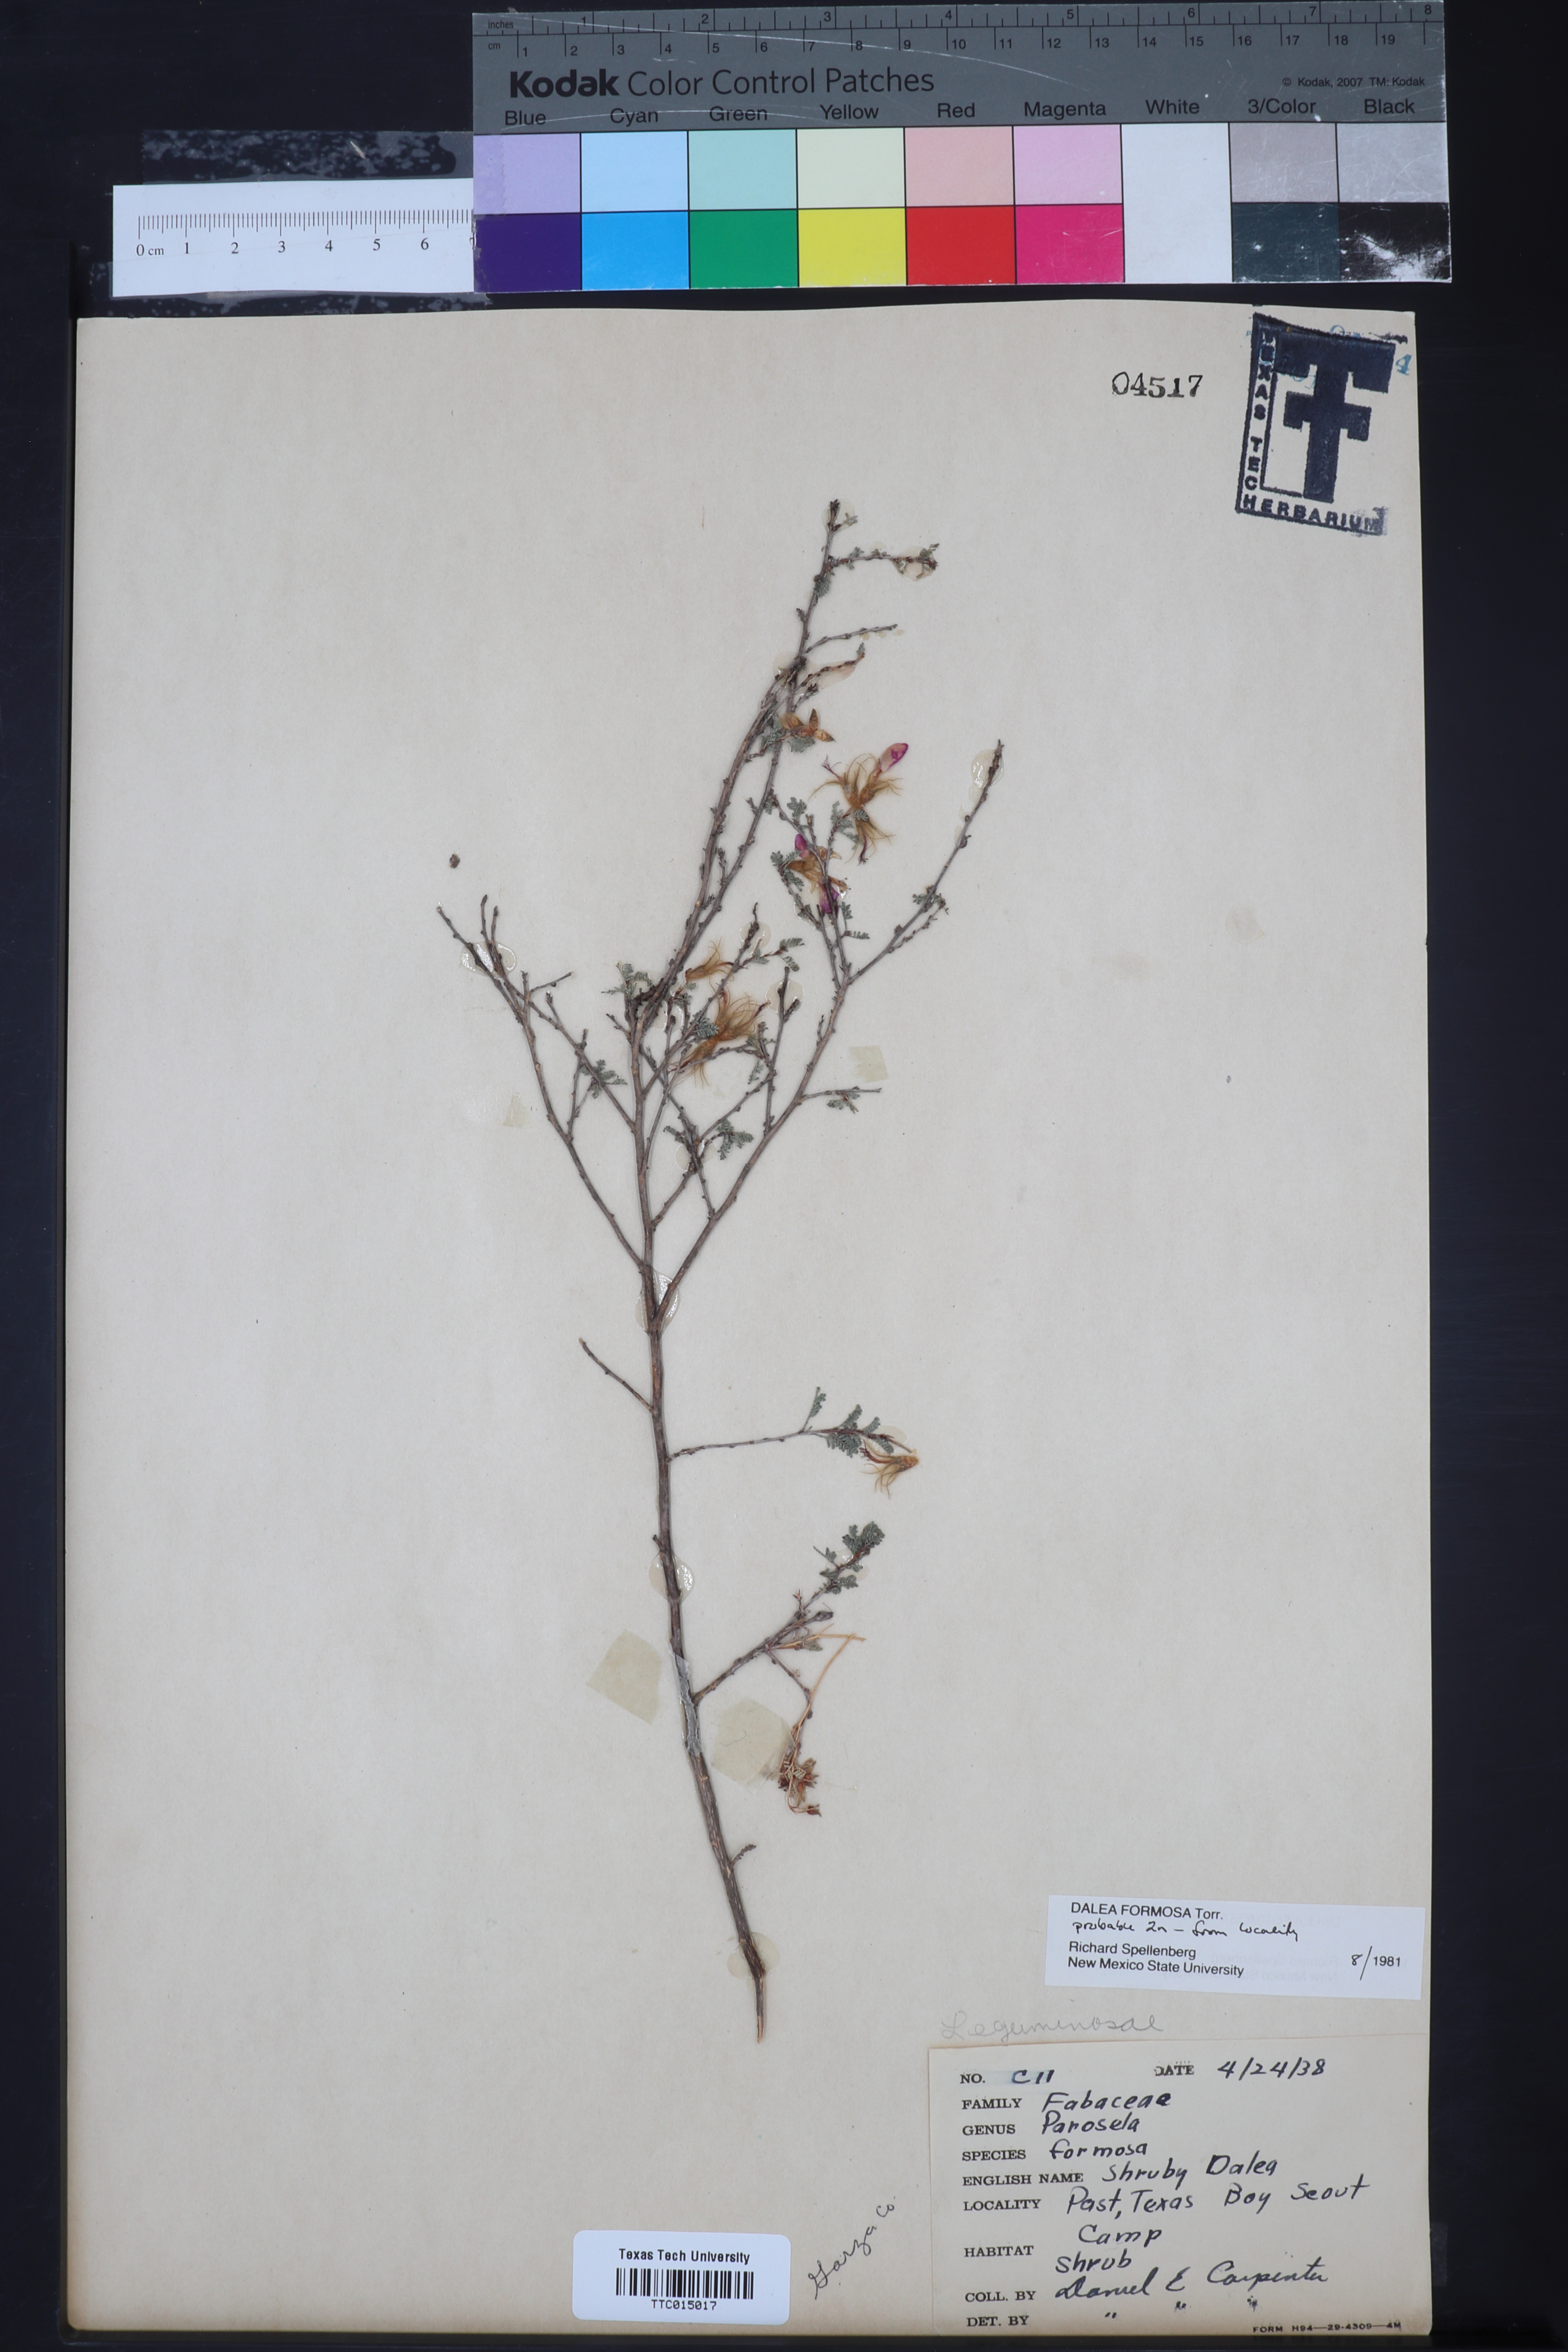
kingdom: Plantae
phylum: Tracheophyta
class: Magnoliopsida
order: Fabales
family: Fabaceae
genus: Dalea
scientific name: Dalea formosa
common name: Feather-plume dalea
